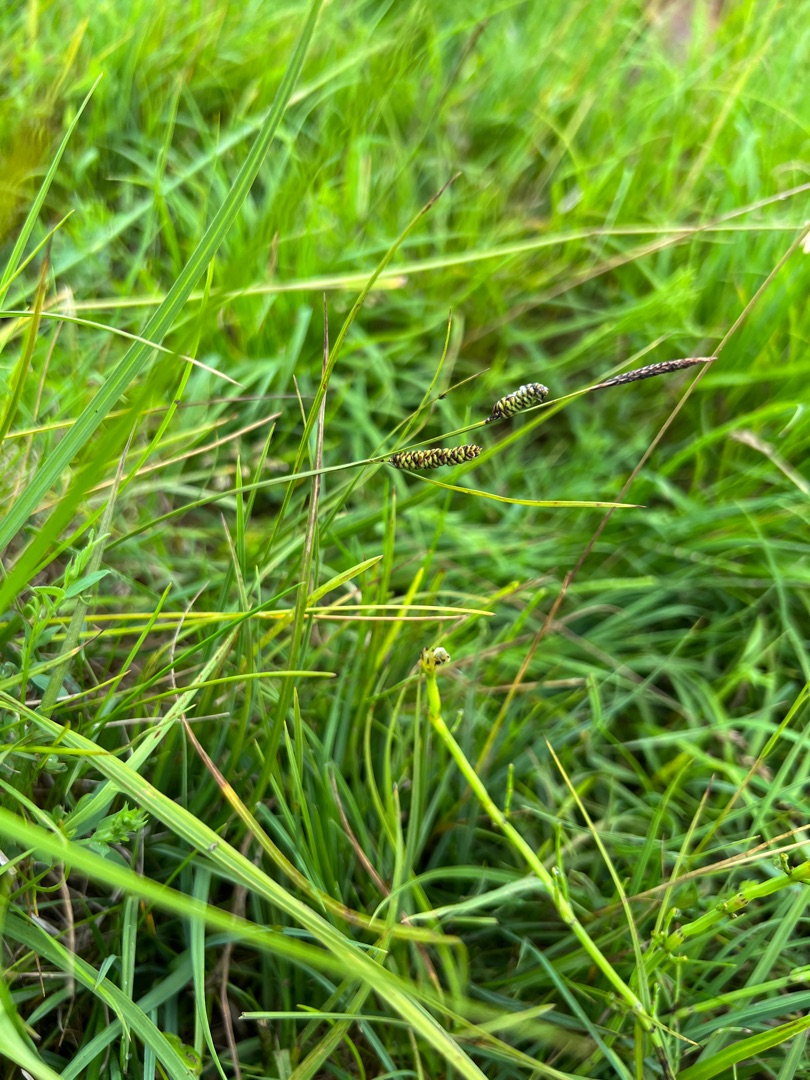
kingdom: Plantae
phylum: Tracheophyta
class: Liliopsida
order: Poales
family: Cyperaceae
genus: Carex
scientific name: Carex nigra
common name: Knold-star
